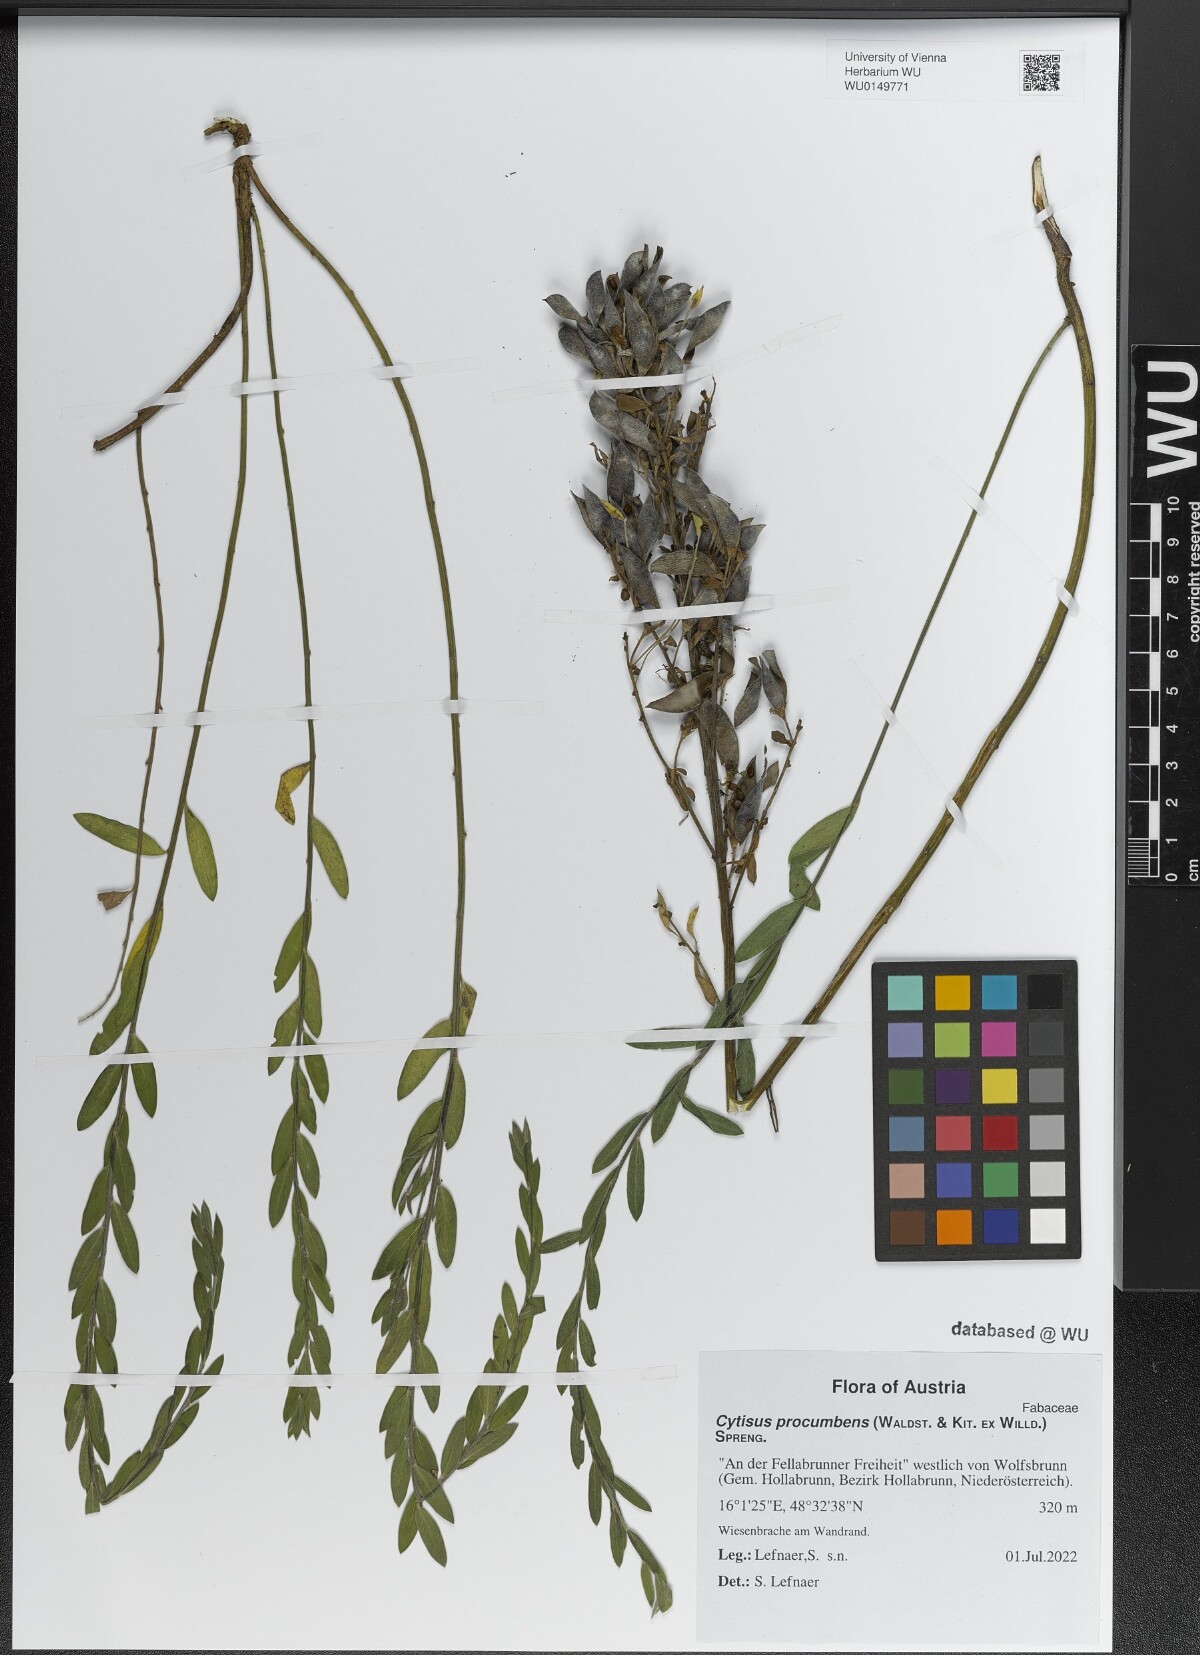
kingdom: Plantae
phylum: Tracheophyta
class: Magnoliopsida
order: Fabales
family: Fabaceae
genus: Cytisus
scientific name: Cytisus procumbens
